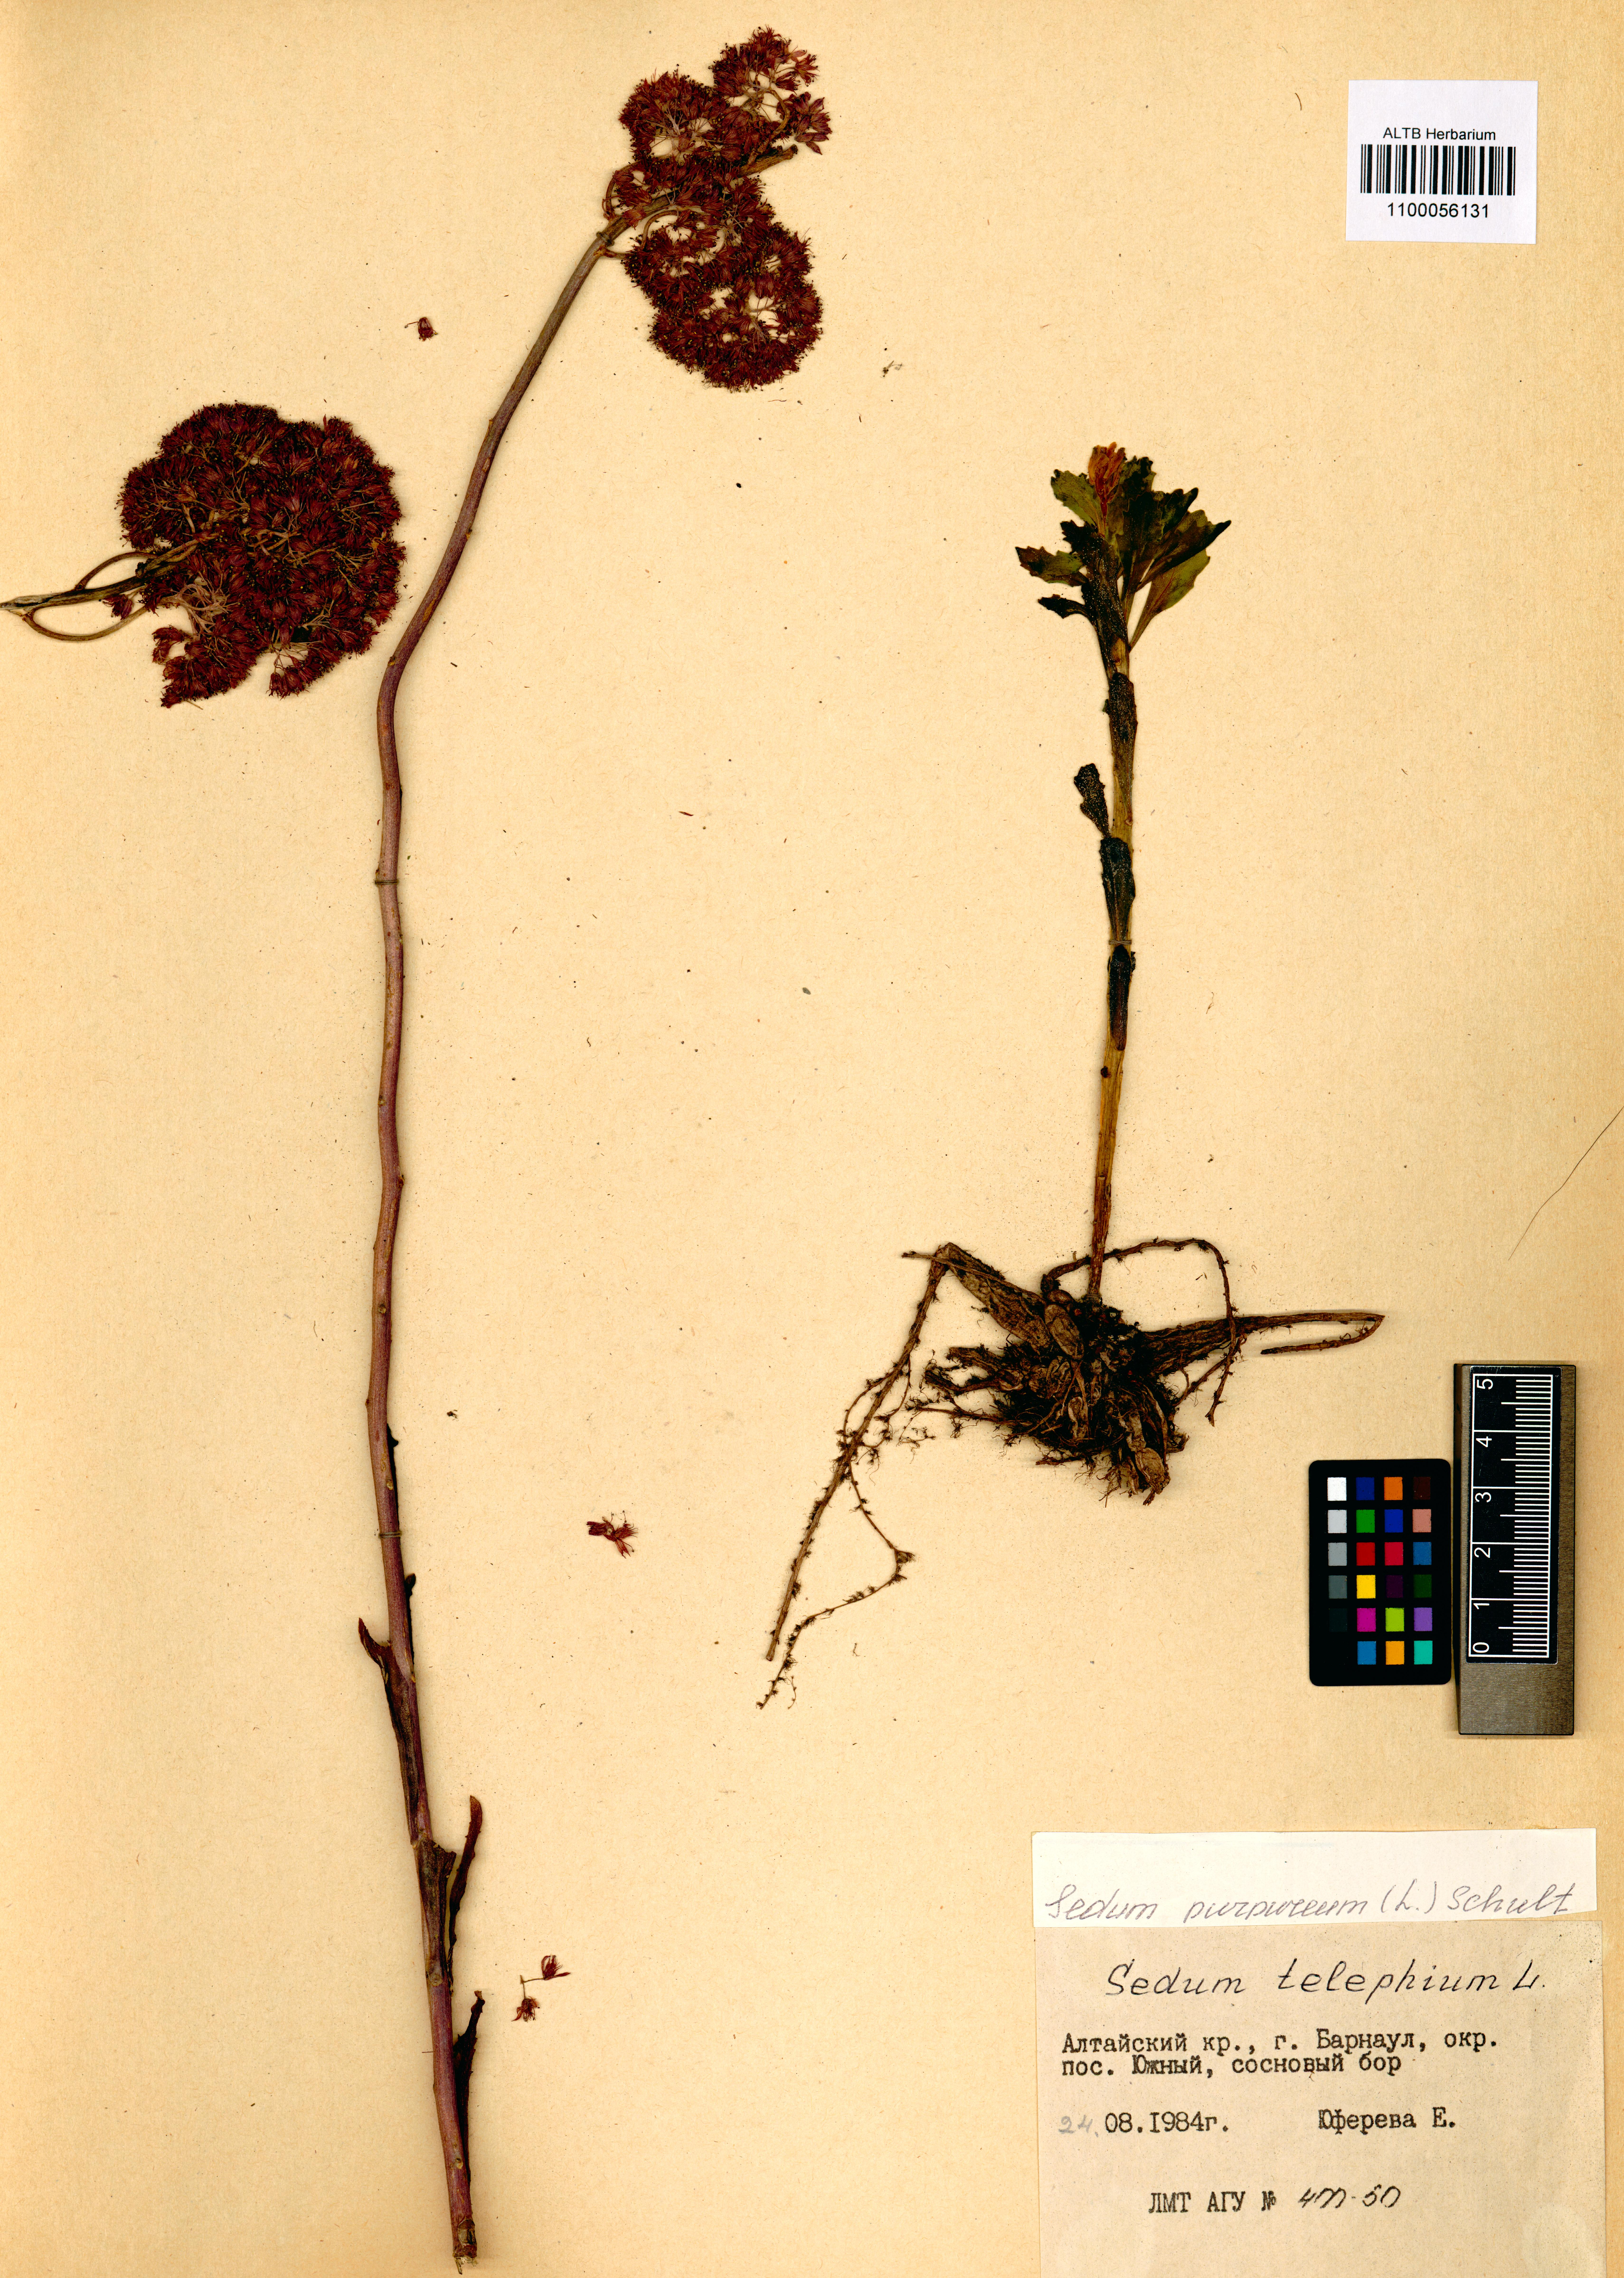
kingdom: Plantae
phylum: Tracheophyta
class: Magnoliopsida
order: Saxifragales
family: Crassulaceae
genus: Hylotelephium
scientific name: Hylotelephium telephium
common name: Live-forever
